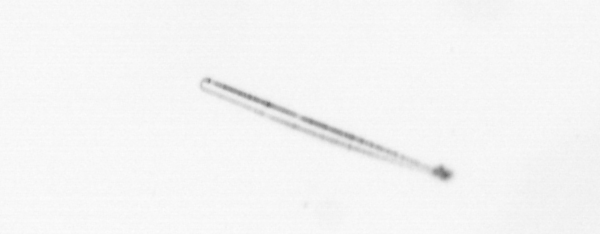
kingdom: Chromista
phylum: Ochrophyta
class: Bacillariophyceae
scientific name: Bacillariophyceae
